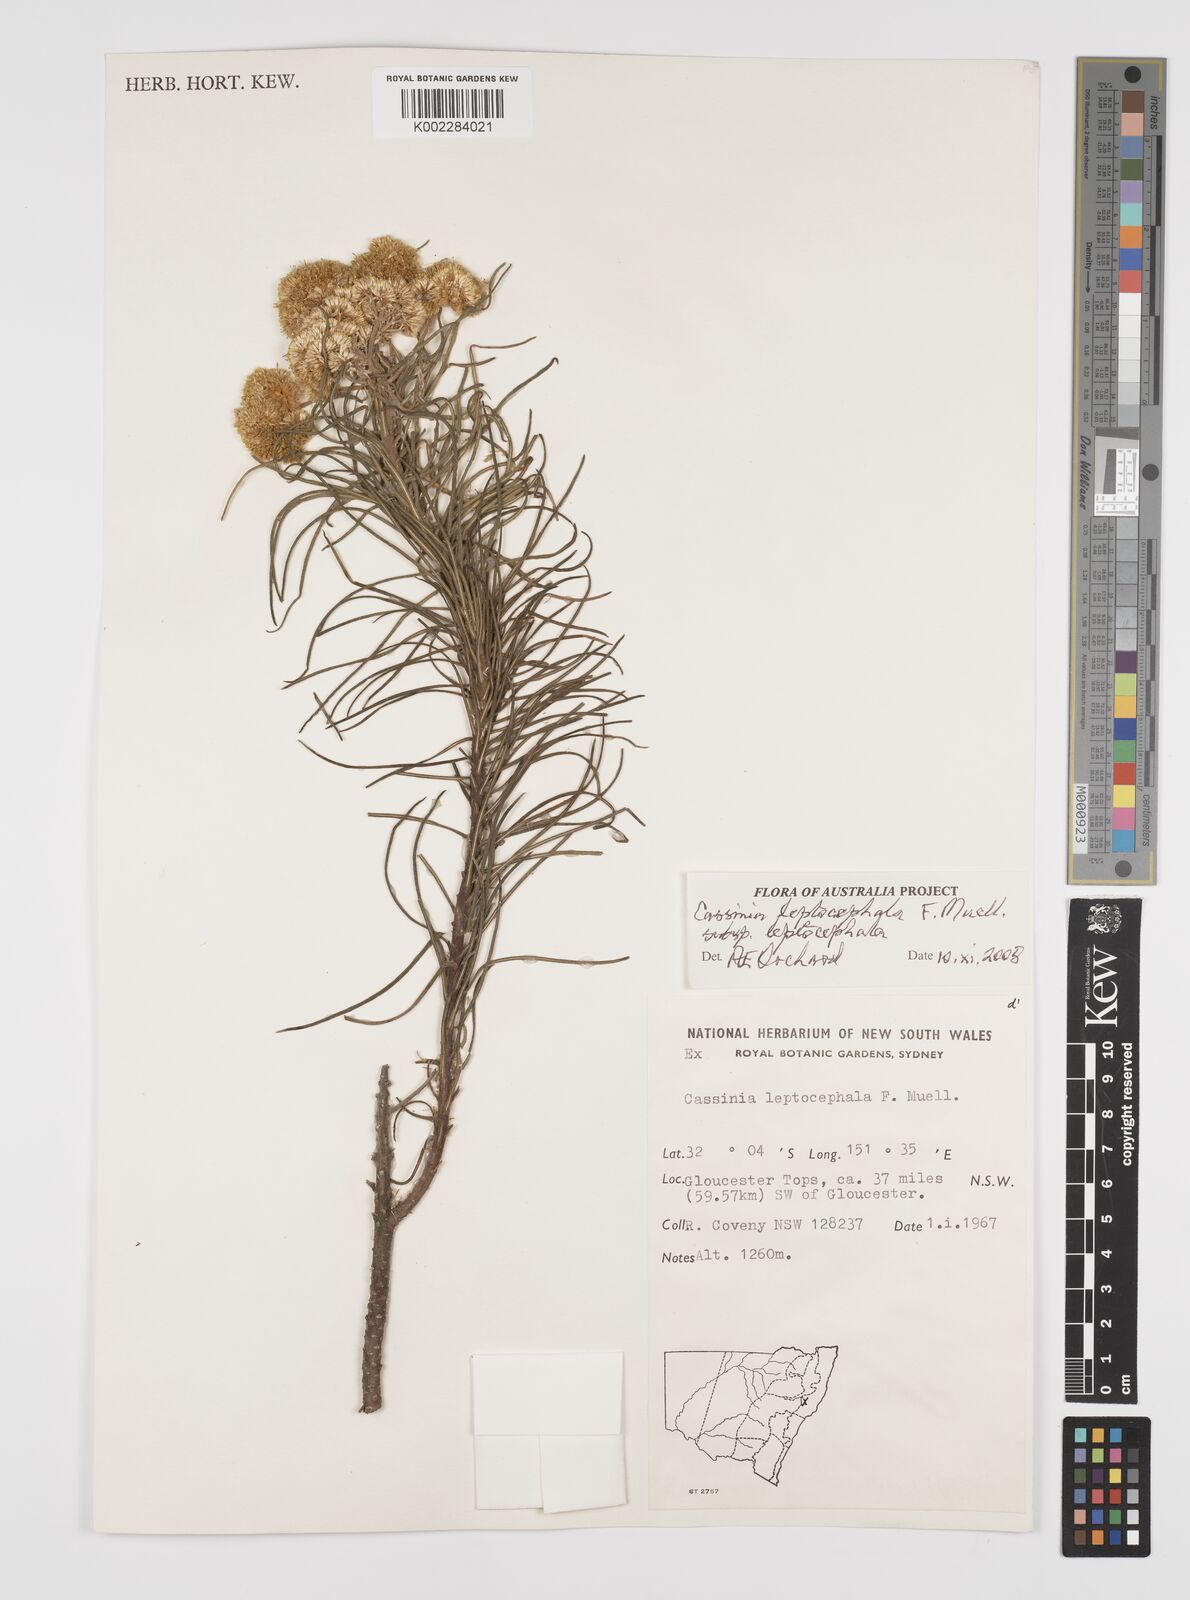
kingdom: Plantae
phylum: Tracheophyta
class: Magnoliopsida
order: Asterales
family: Asteraceae
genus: Cassinia
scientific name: Cassinia leptocephala
